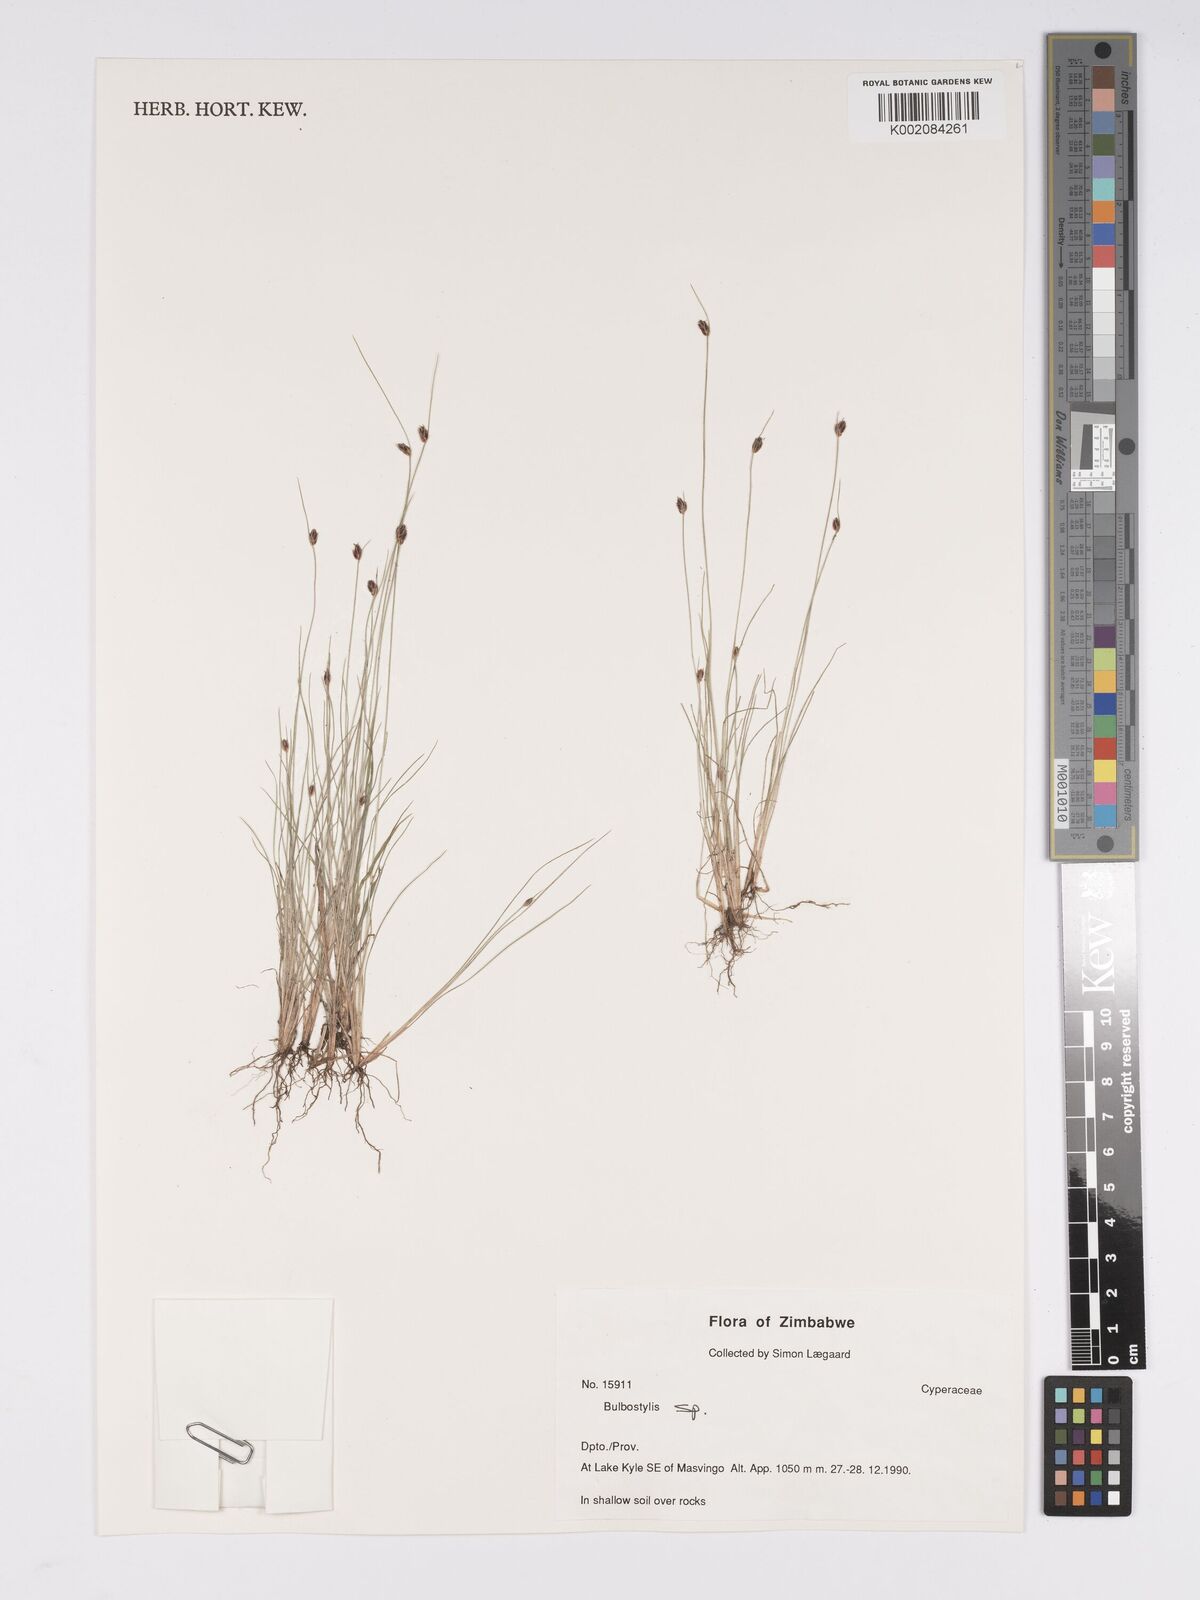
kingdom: Plantae
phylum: Tracheophyta
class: Liliopsida
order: Poales
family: Cyperaceae
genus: Bulbostylis
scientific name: Bulbostylis
